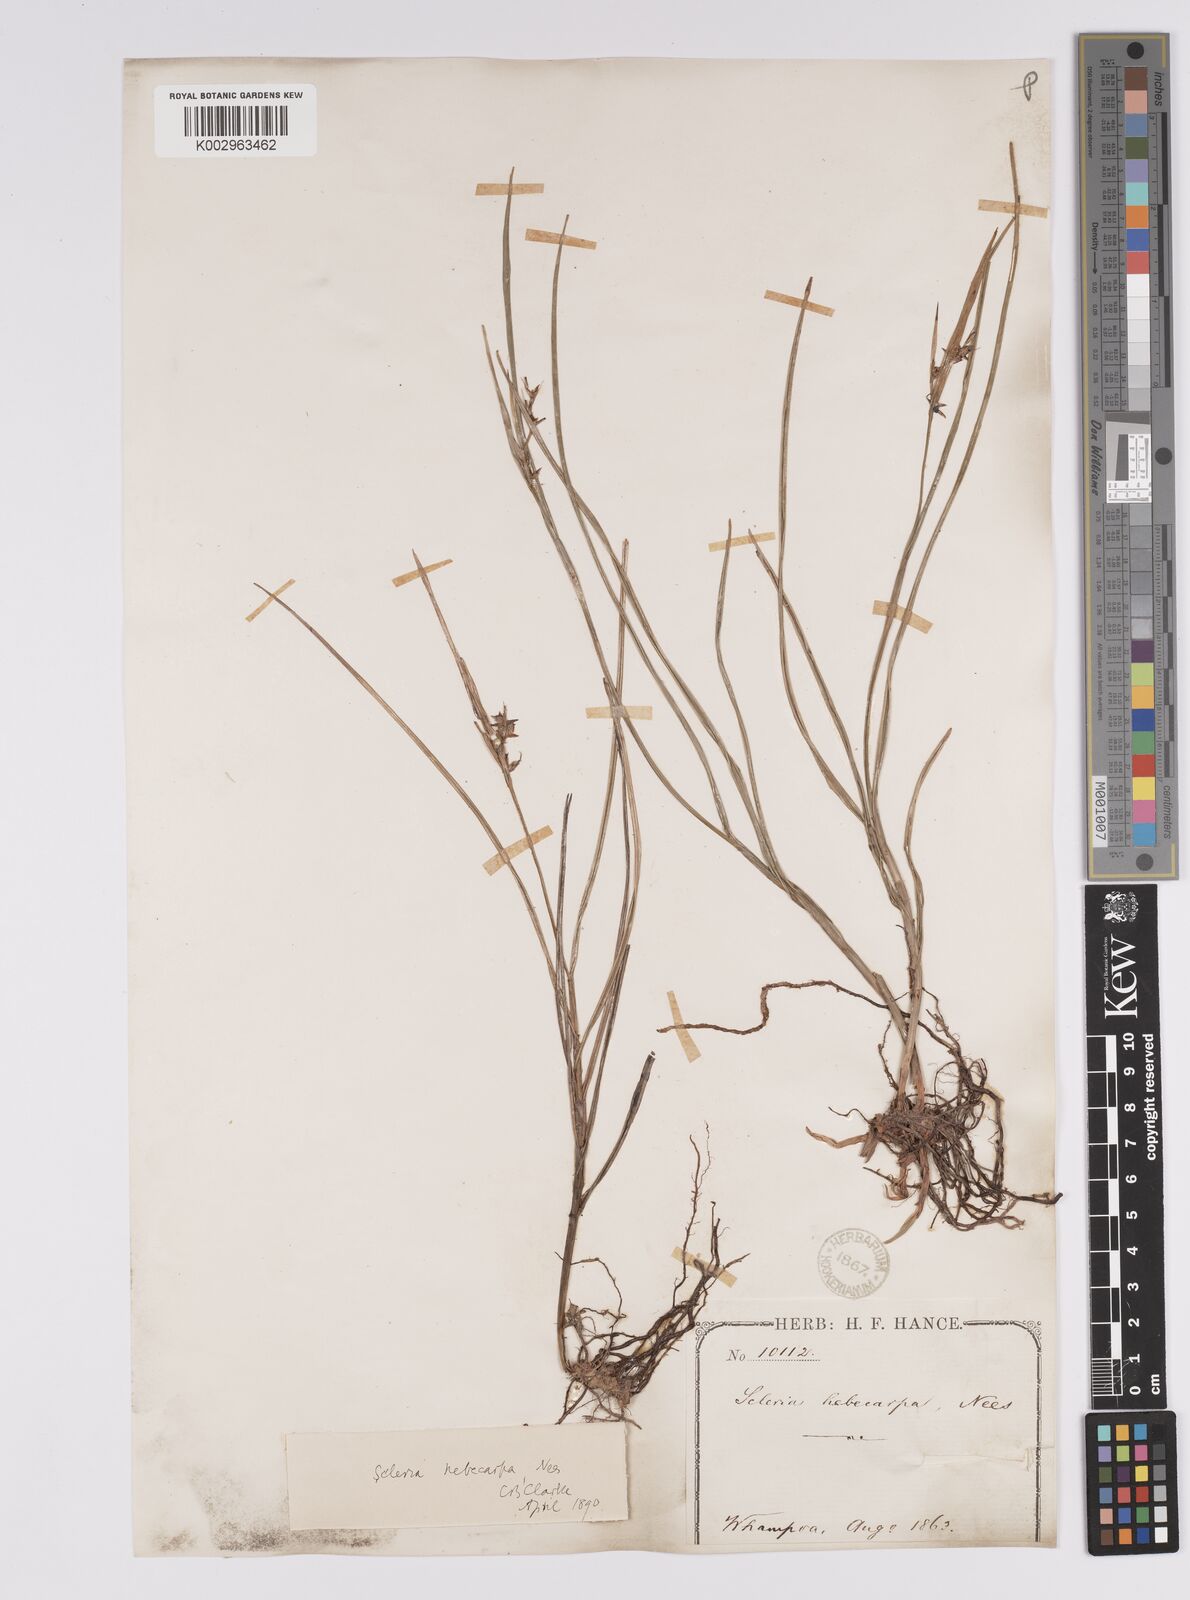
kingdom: Plantae
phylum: Tracheophyta
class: Liliopsida
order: Poales
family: Cyperaceae
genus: Scleria
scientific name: Scleria levis
